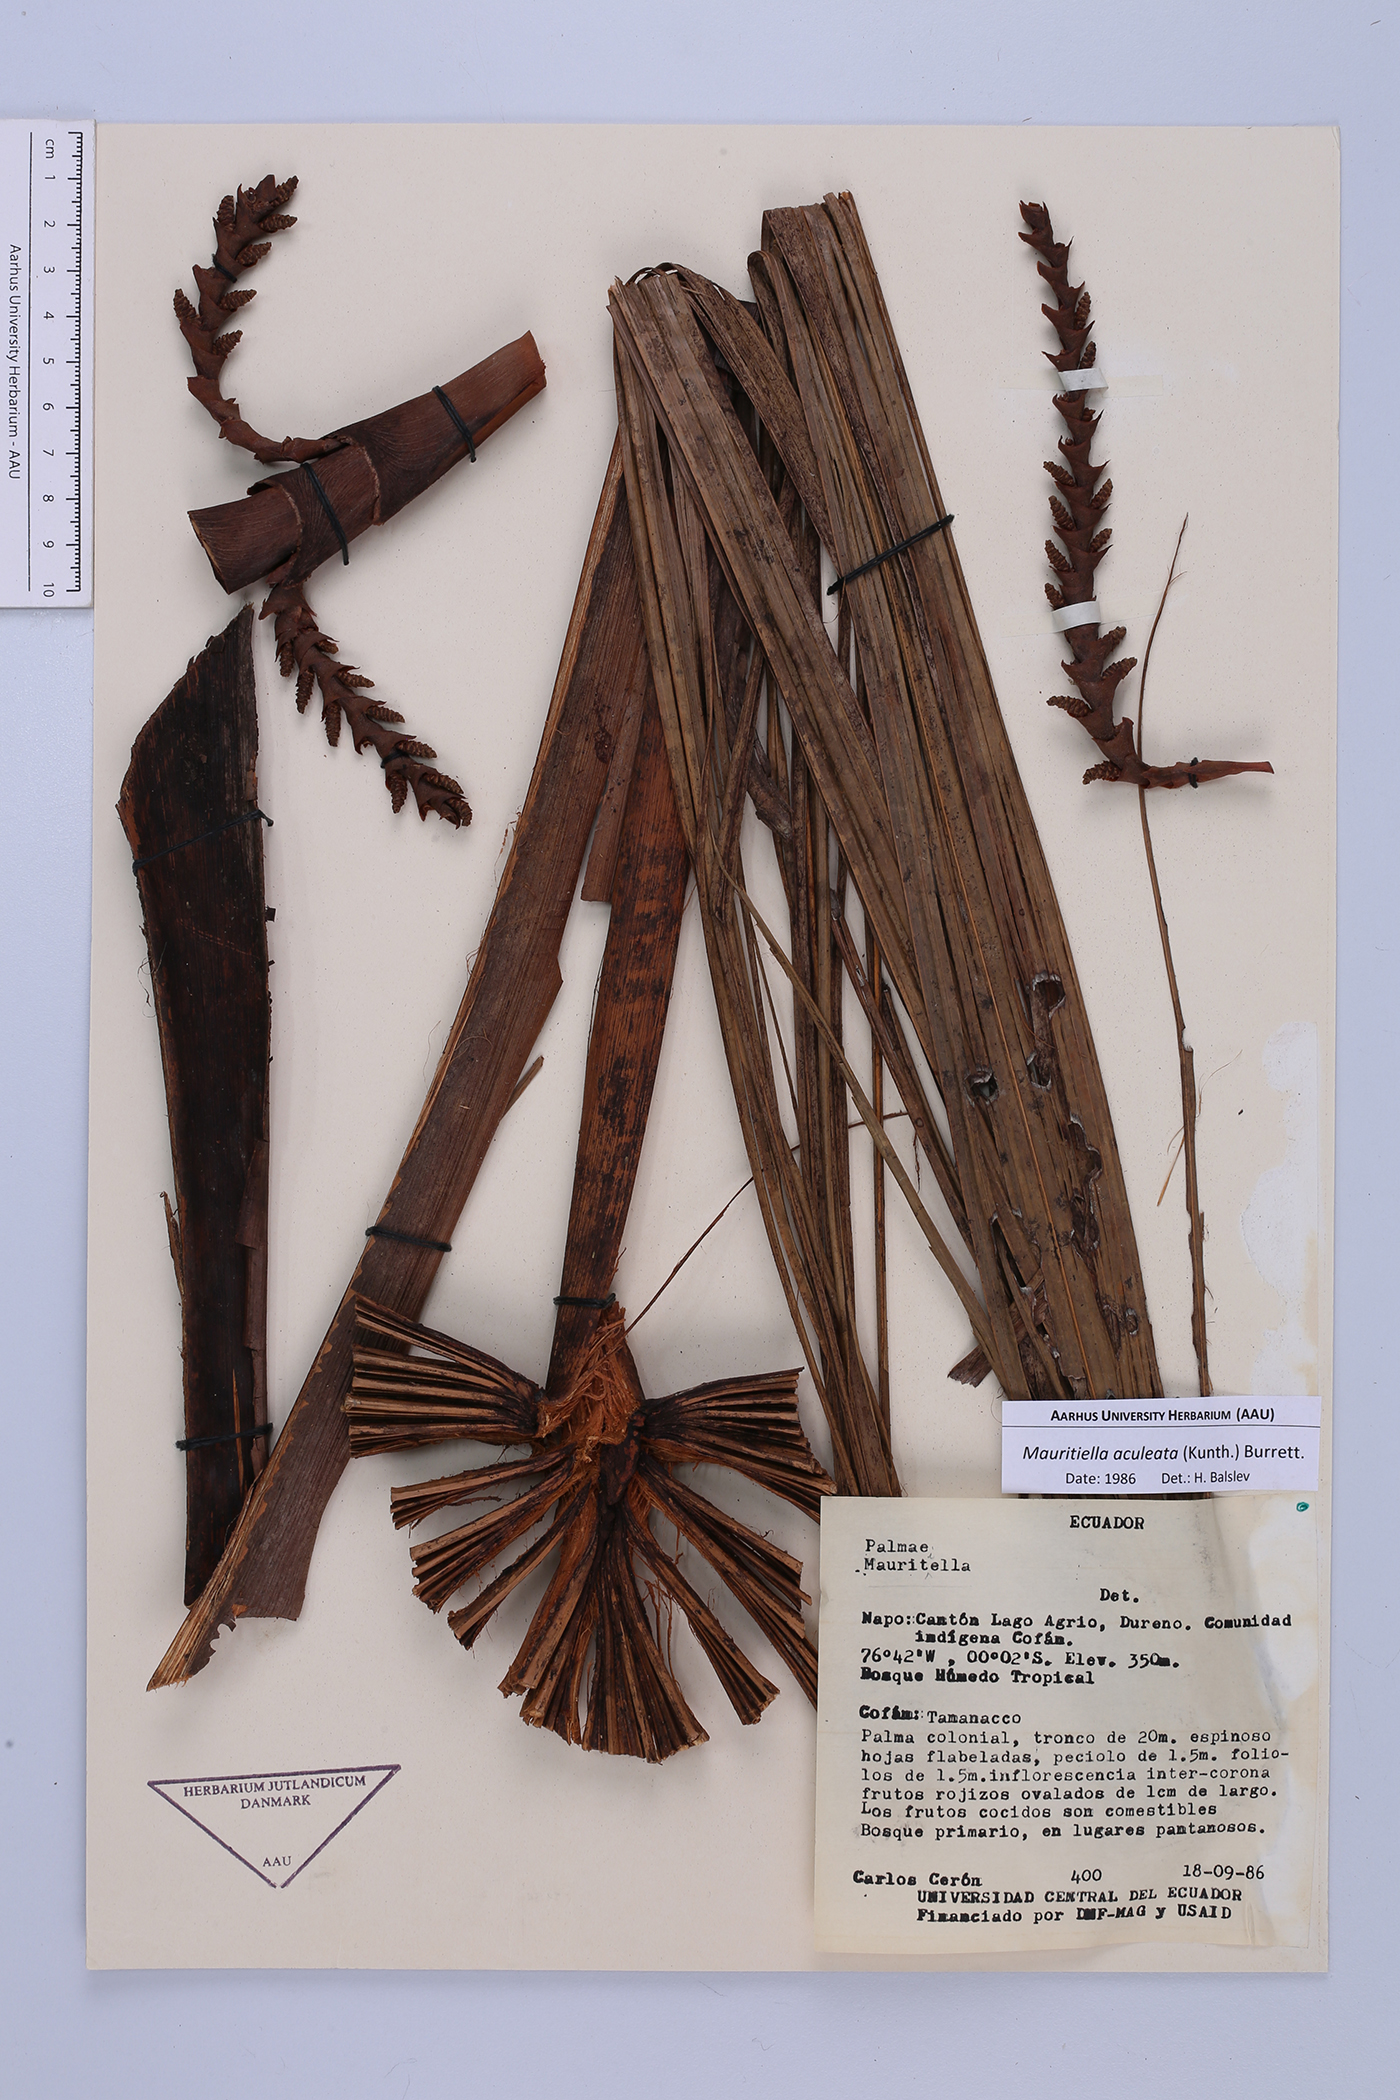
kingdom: Plantae
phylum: Tracheophyta
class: Liliopsida
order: Arecales
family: Arecaceae
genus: Mauritiella
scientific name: Mauritiella aculeata
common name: Buritirana
